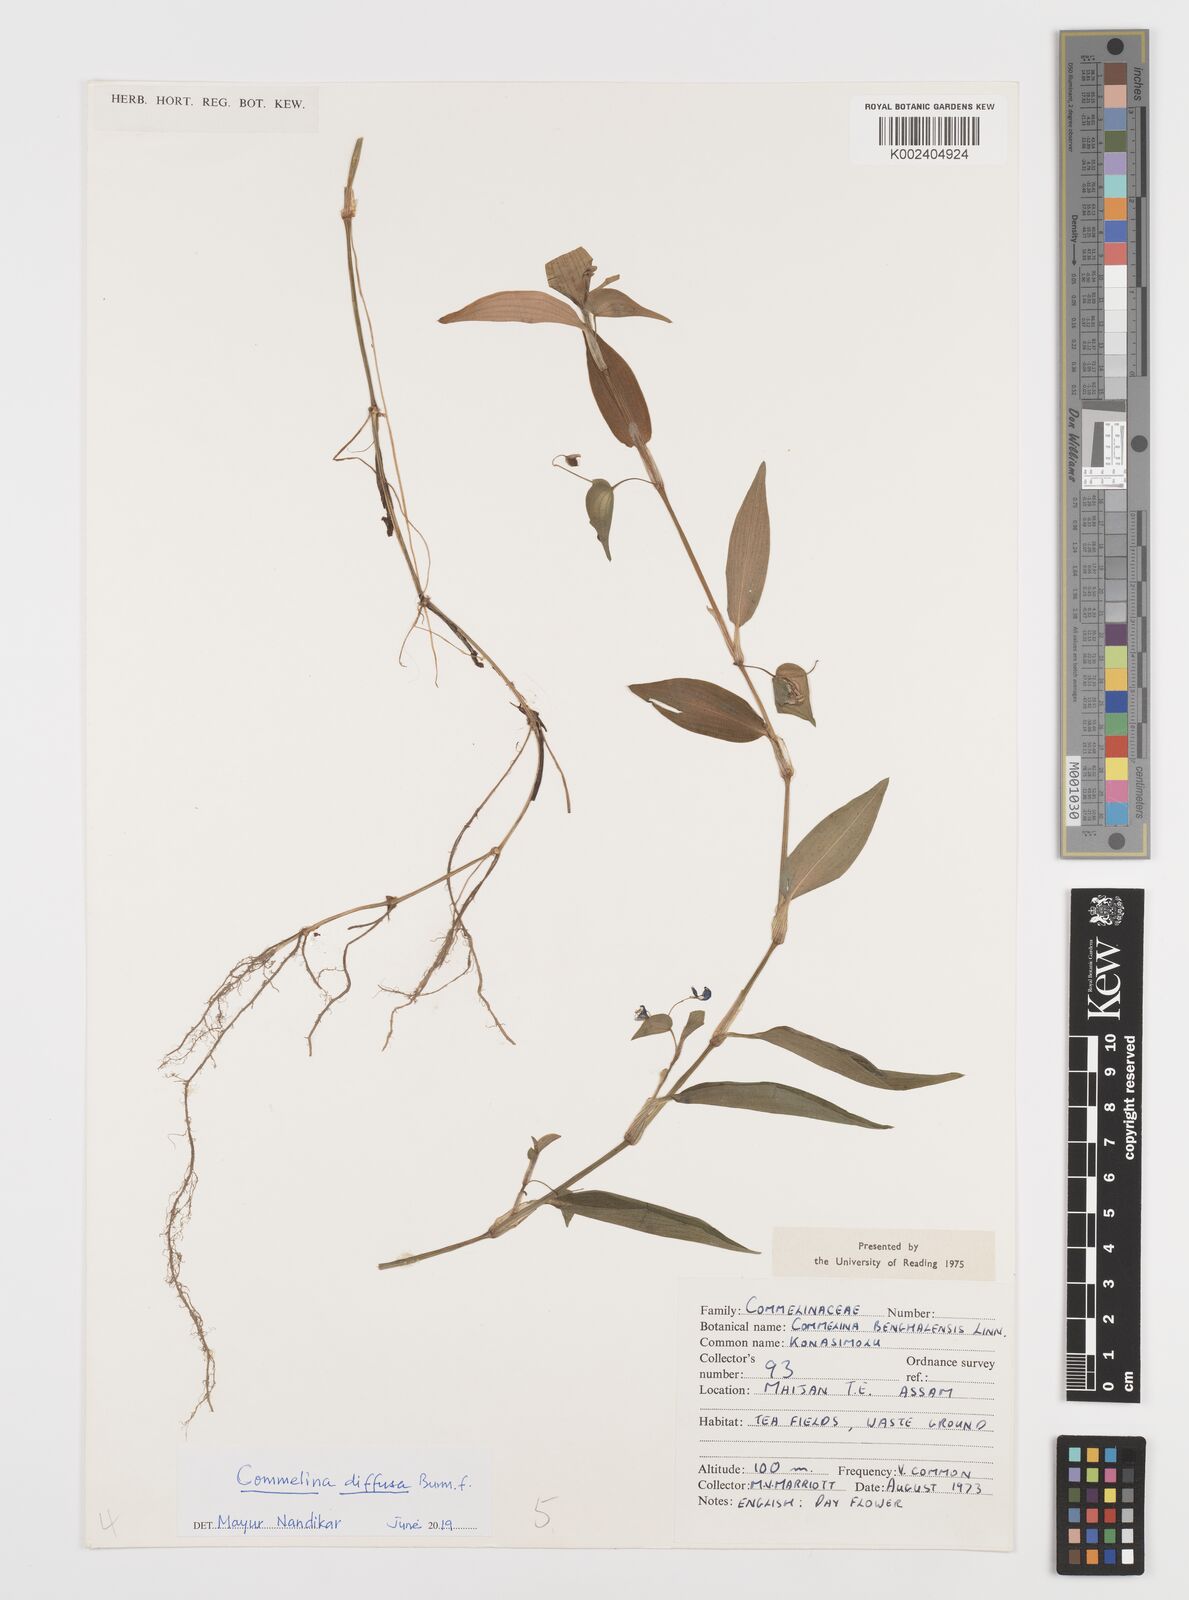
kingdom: Plantae
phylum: Tracheophyta
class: Liliopsida
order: Commelinales
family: Commelinaceae
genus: Commelina
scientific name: Commelina diffusa
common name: Climbing dayflower
